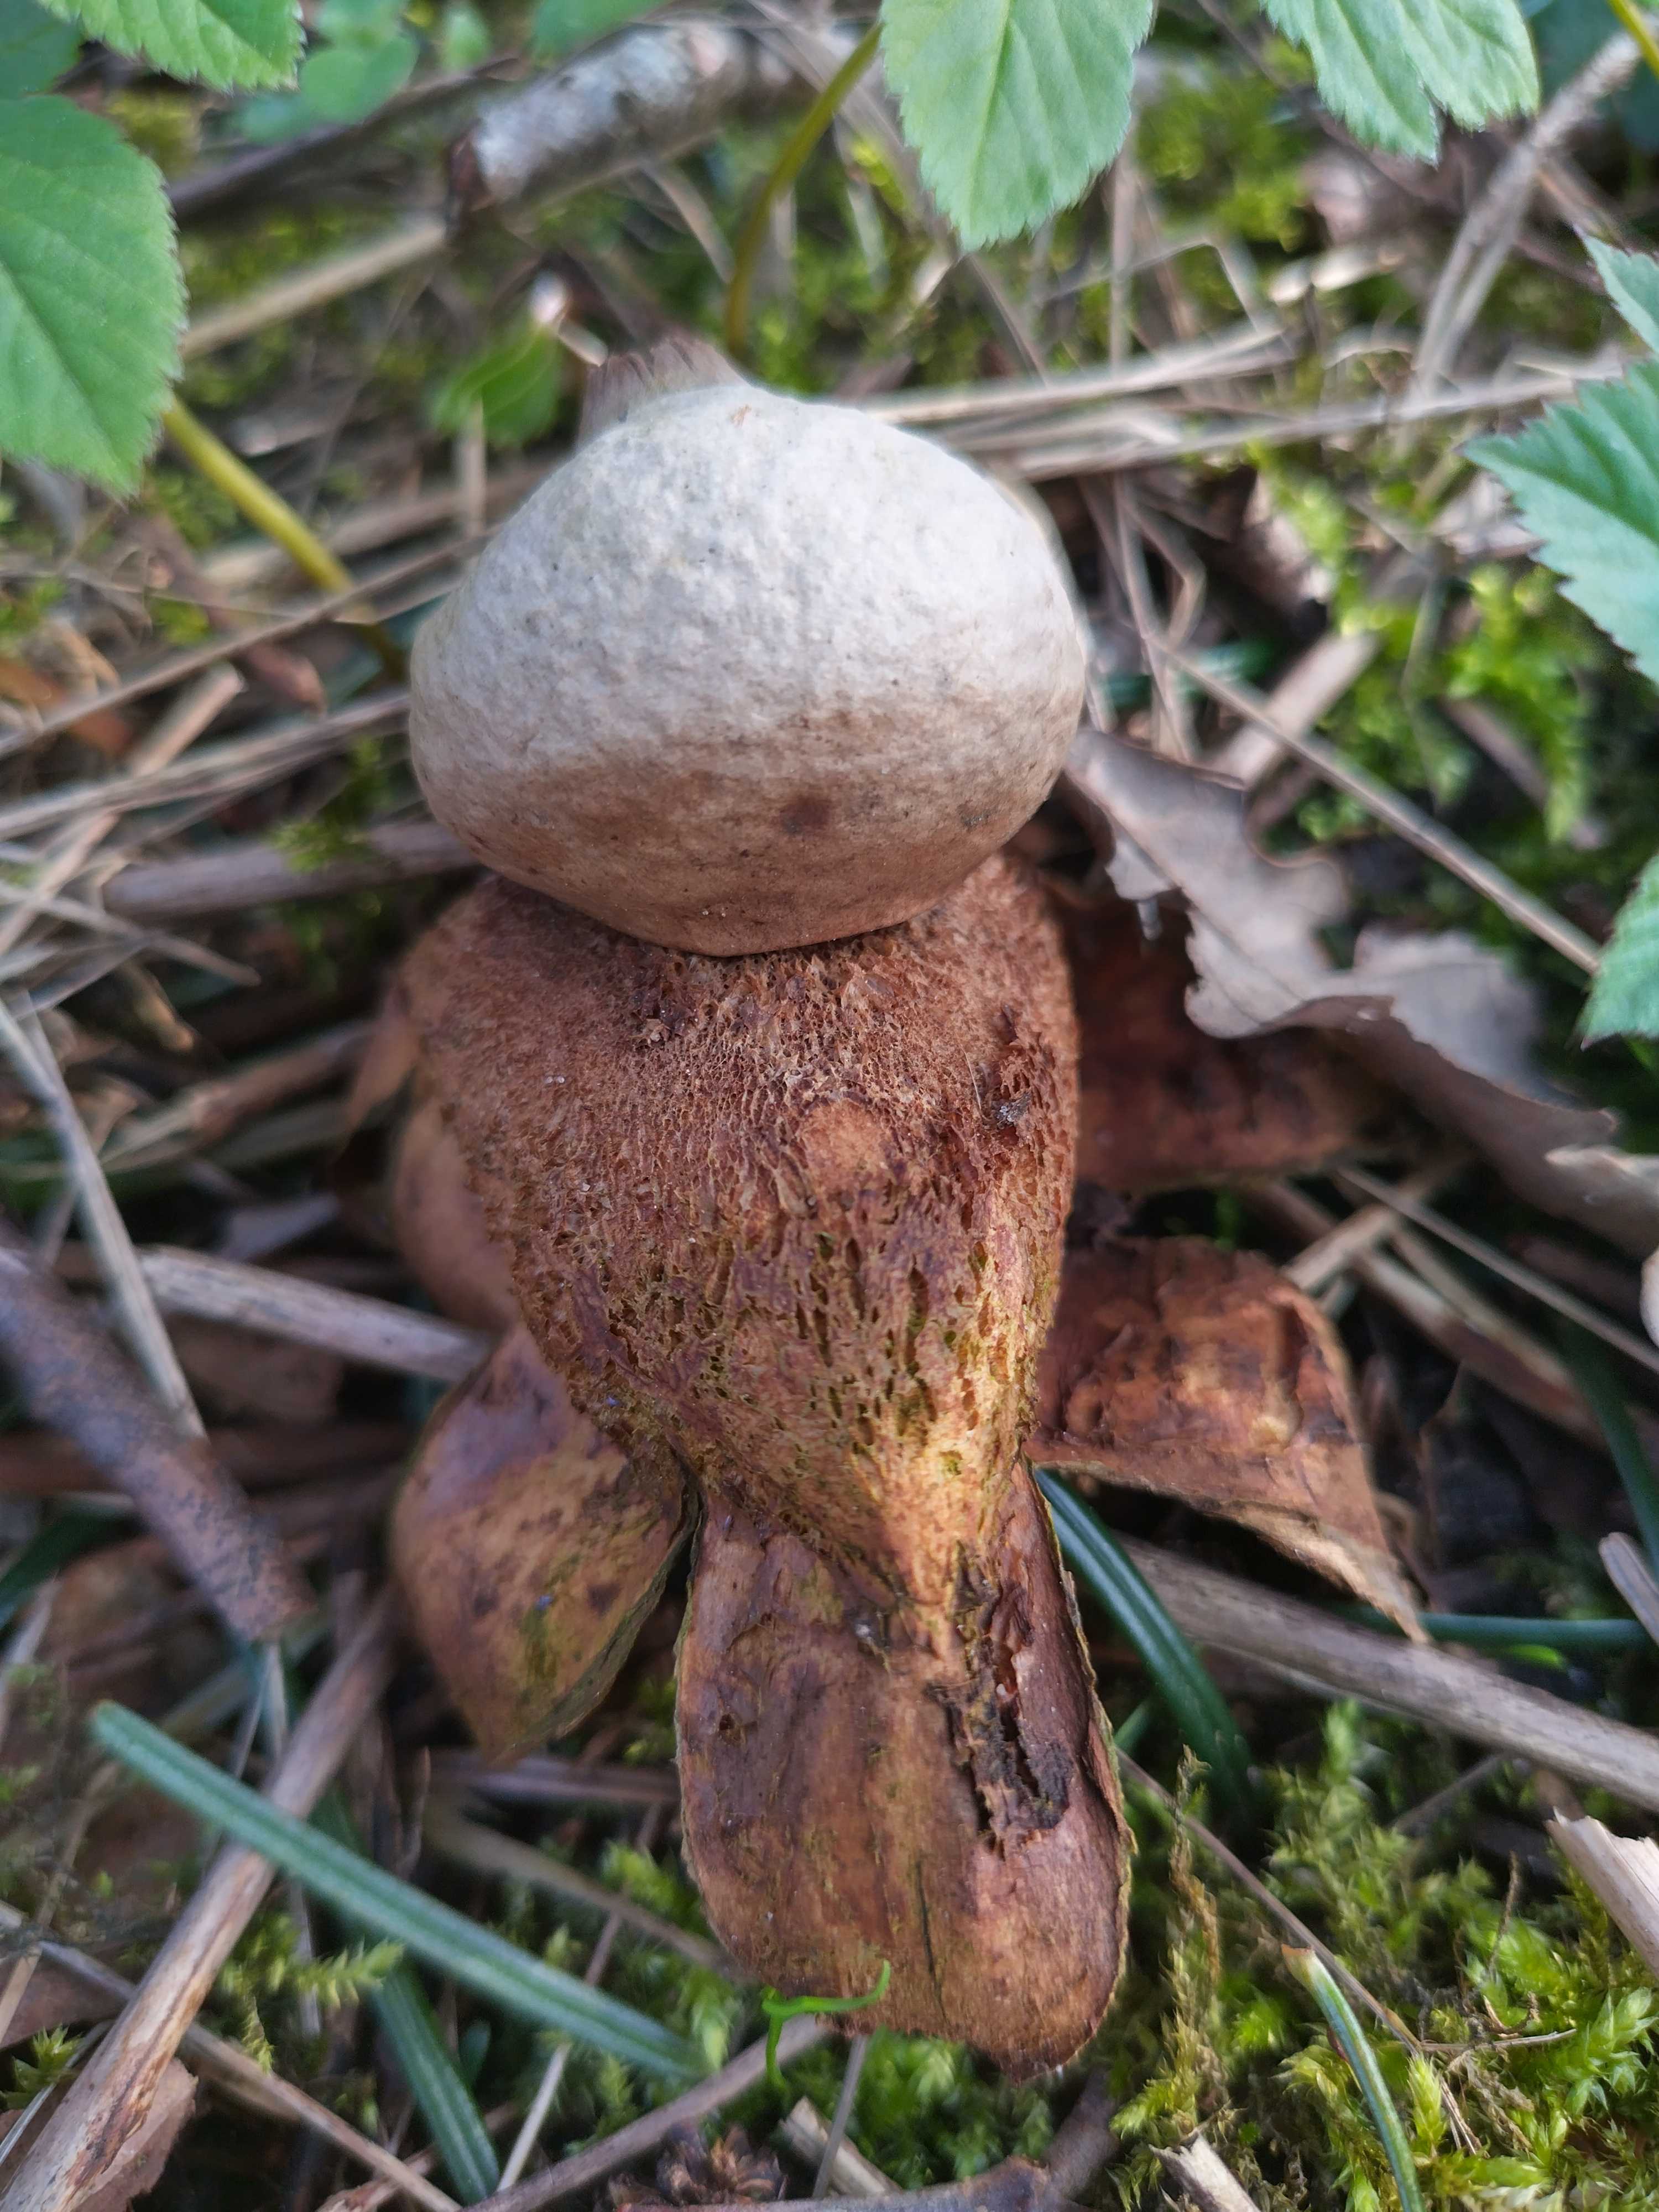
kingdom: Fungi
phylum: Basidiomycota
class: Agaricomycetes
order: Geastrales
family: Geastraceae
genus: Geastrum
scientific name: Geastrum michelianum
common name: kødet stjernebold
